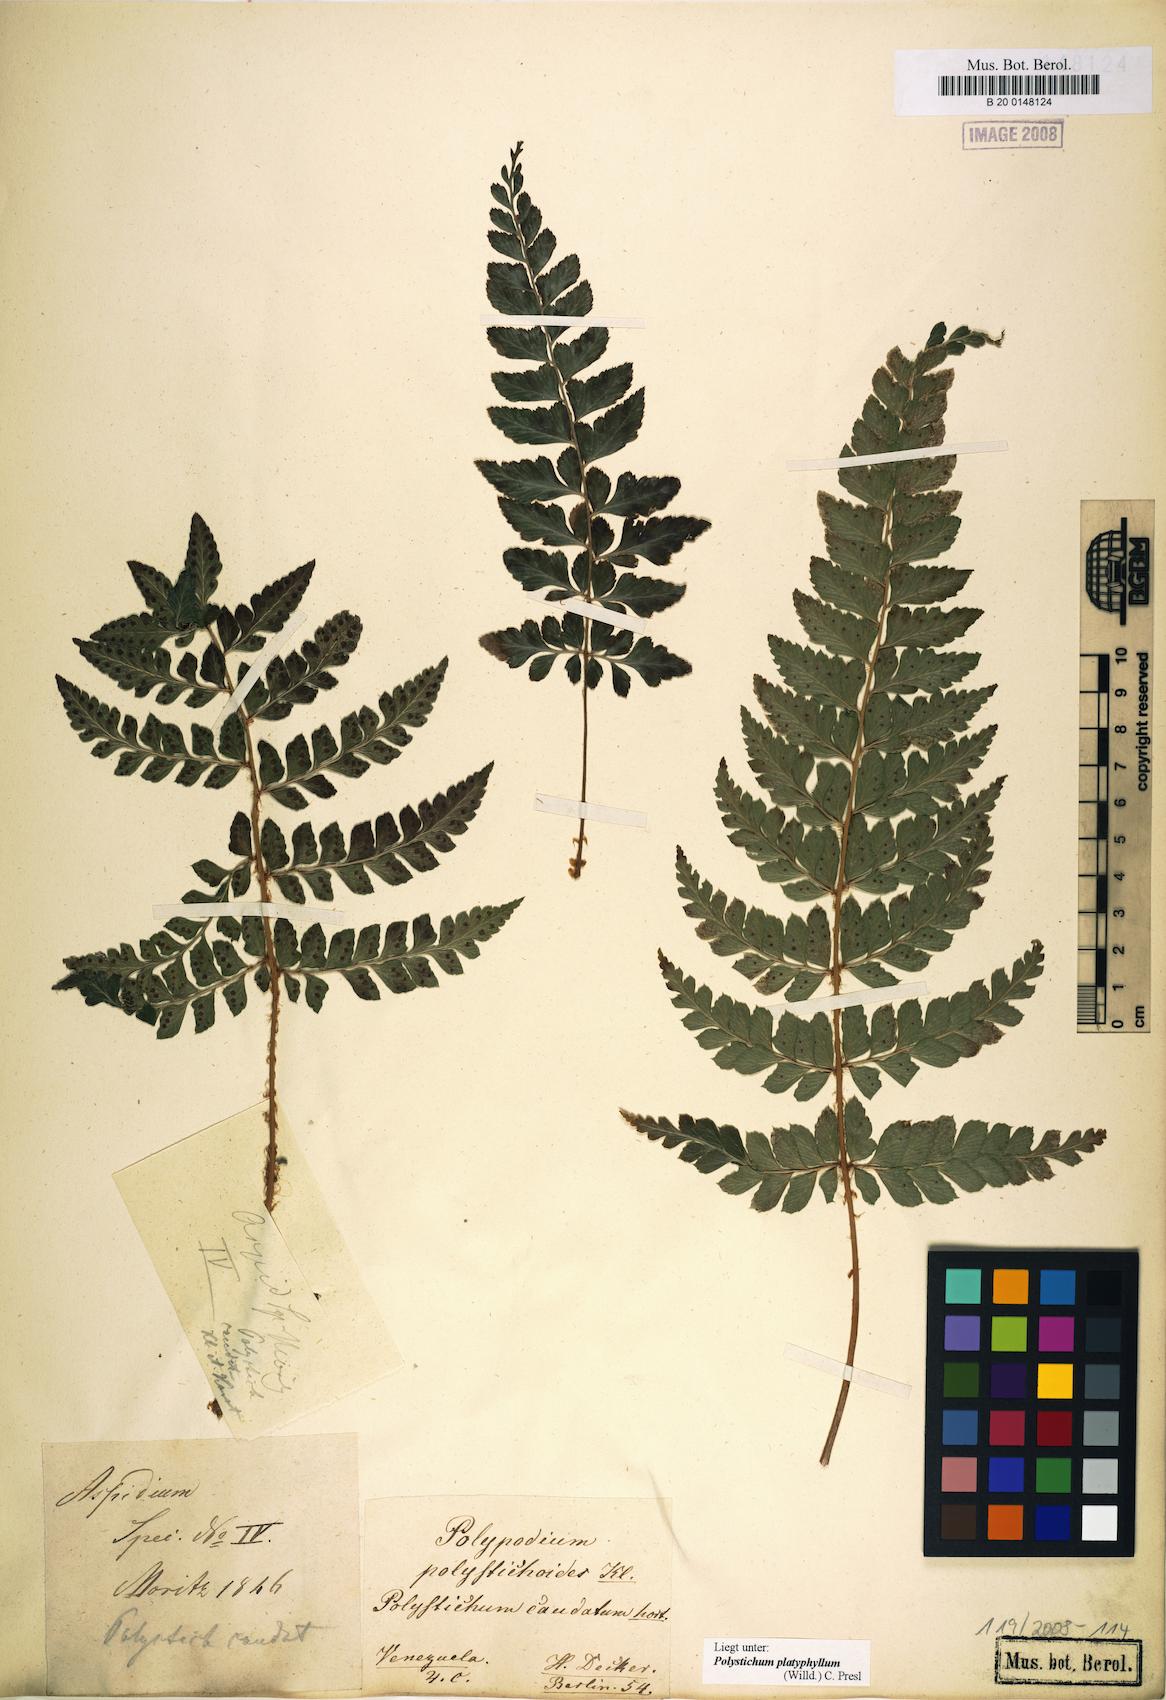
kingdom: Plantae
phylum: Tracheophyta
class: Polypodiopsida
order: Polypodiales
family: Dryopteridaceae
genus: Polystichum
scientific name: Polystichum platyphyllum
